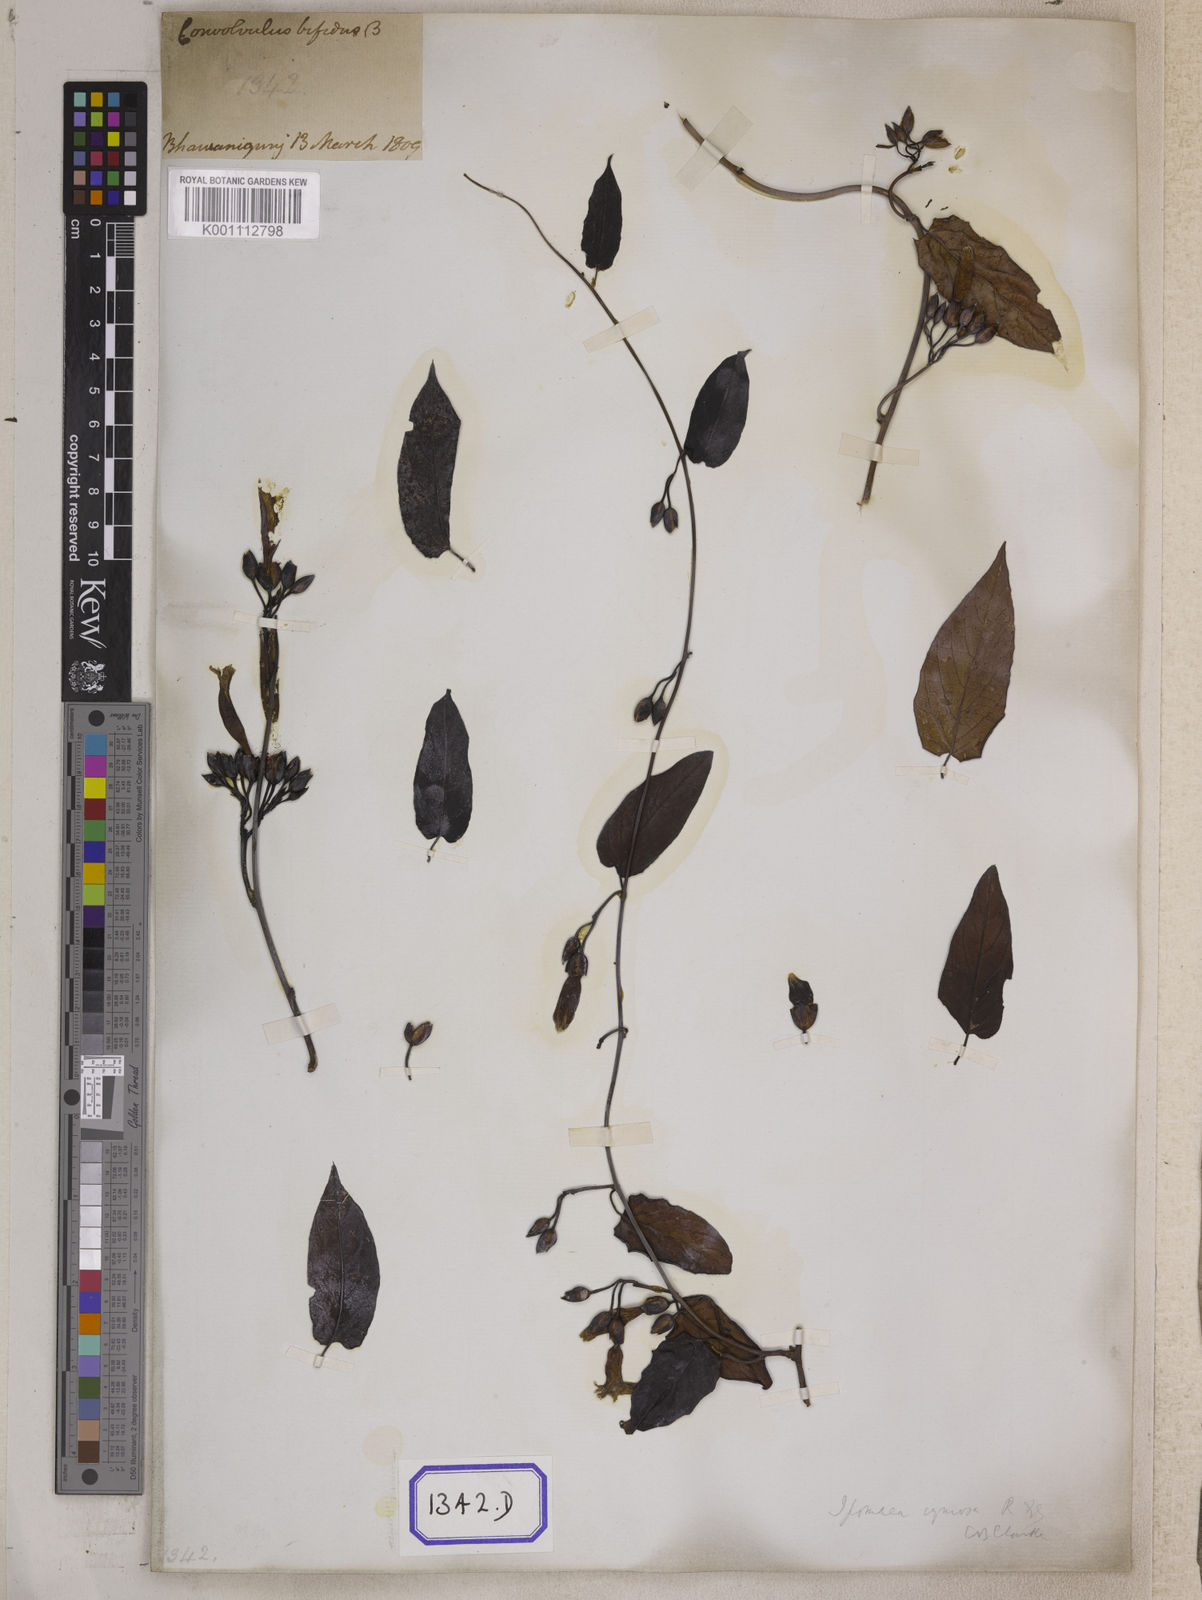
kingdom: Plantae
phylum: Tracheophyta
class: Magnoliopsida
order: Solanales
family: Convolvulaceae
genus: Camonea
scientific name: Camonea umbellata
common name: Hogvine
